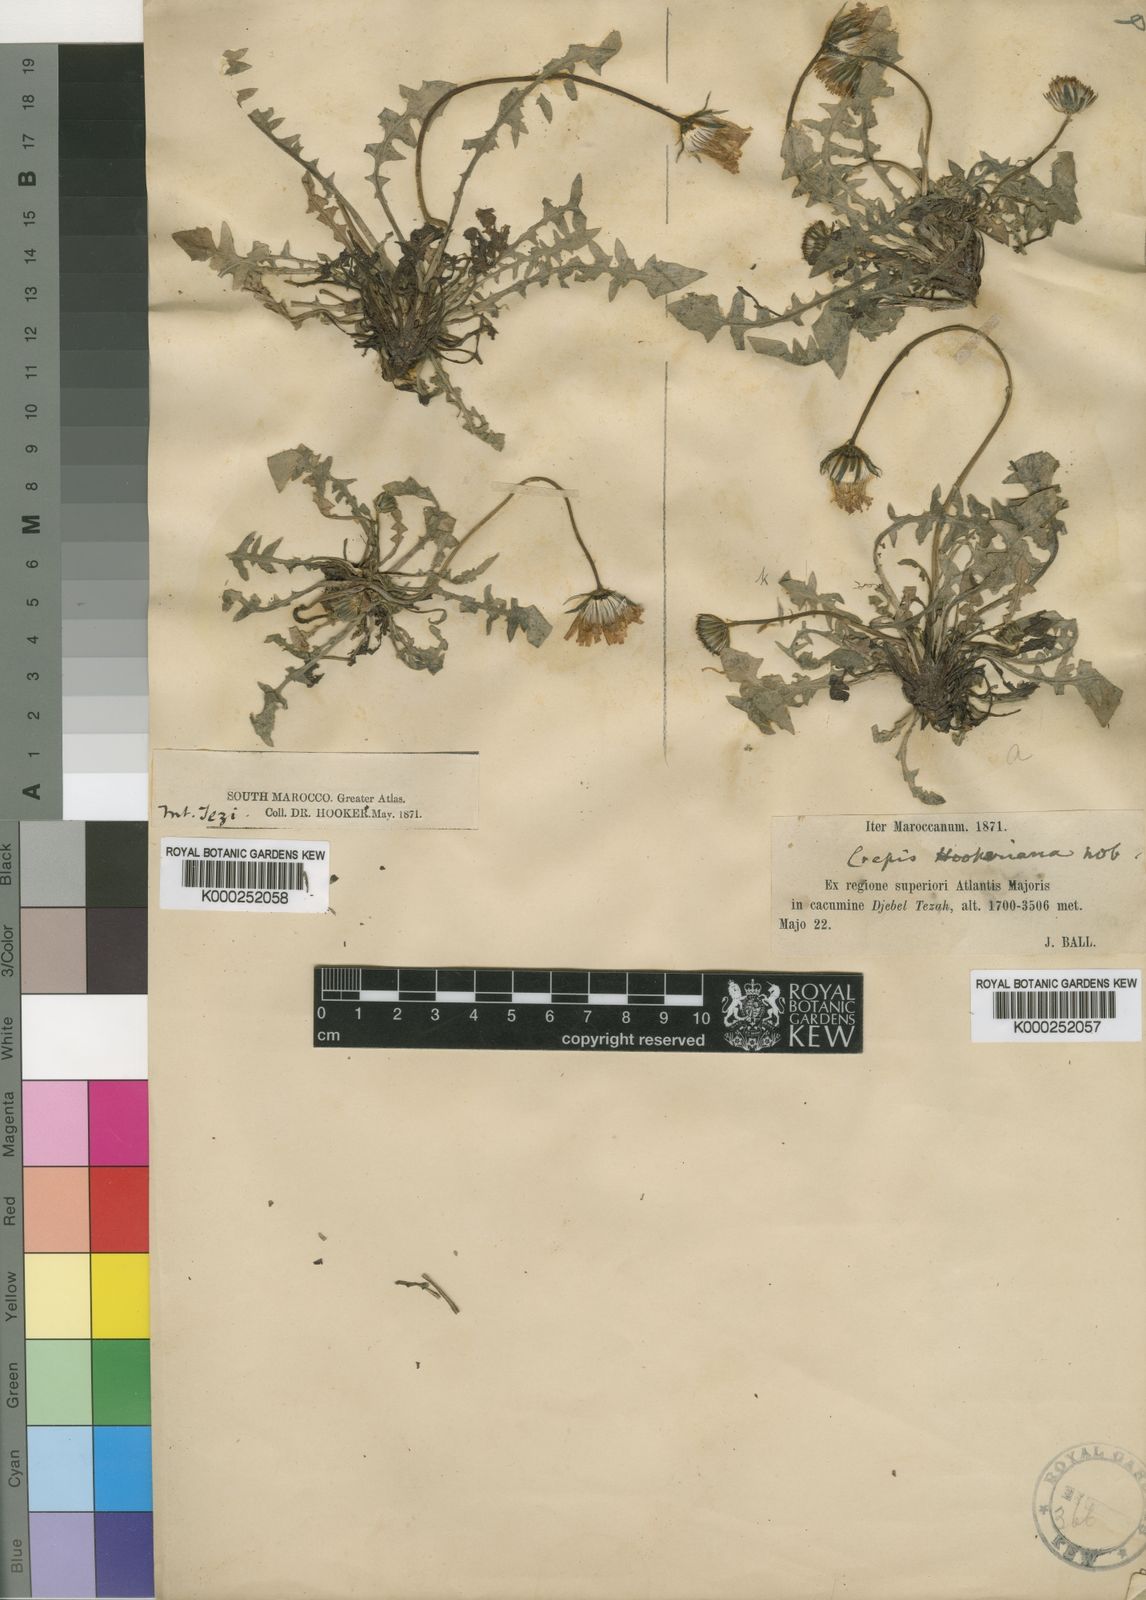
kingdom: Plantae
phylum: Tracheophyta
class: Magnoliopsida
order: Asterales
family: Asteraceae
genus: Crepis
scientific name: Crepis hookeriana
